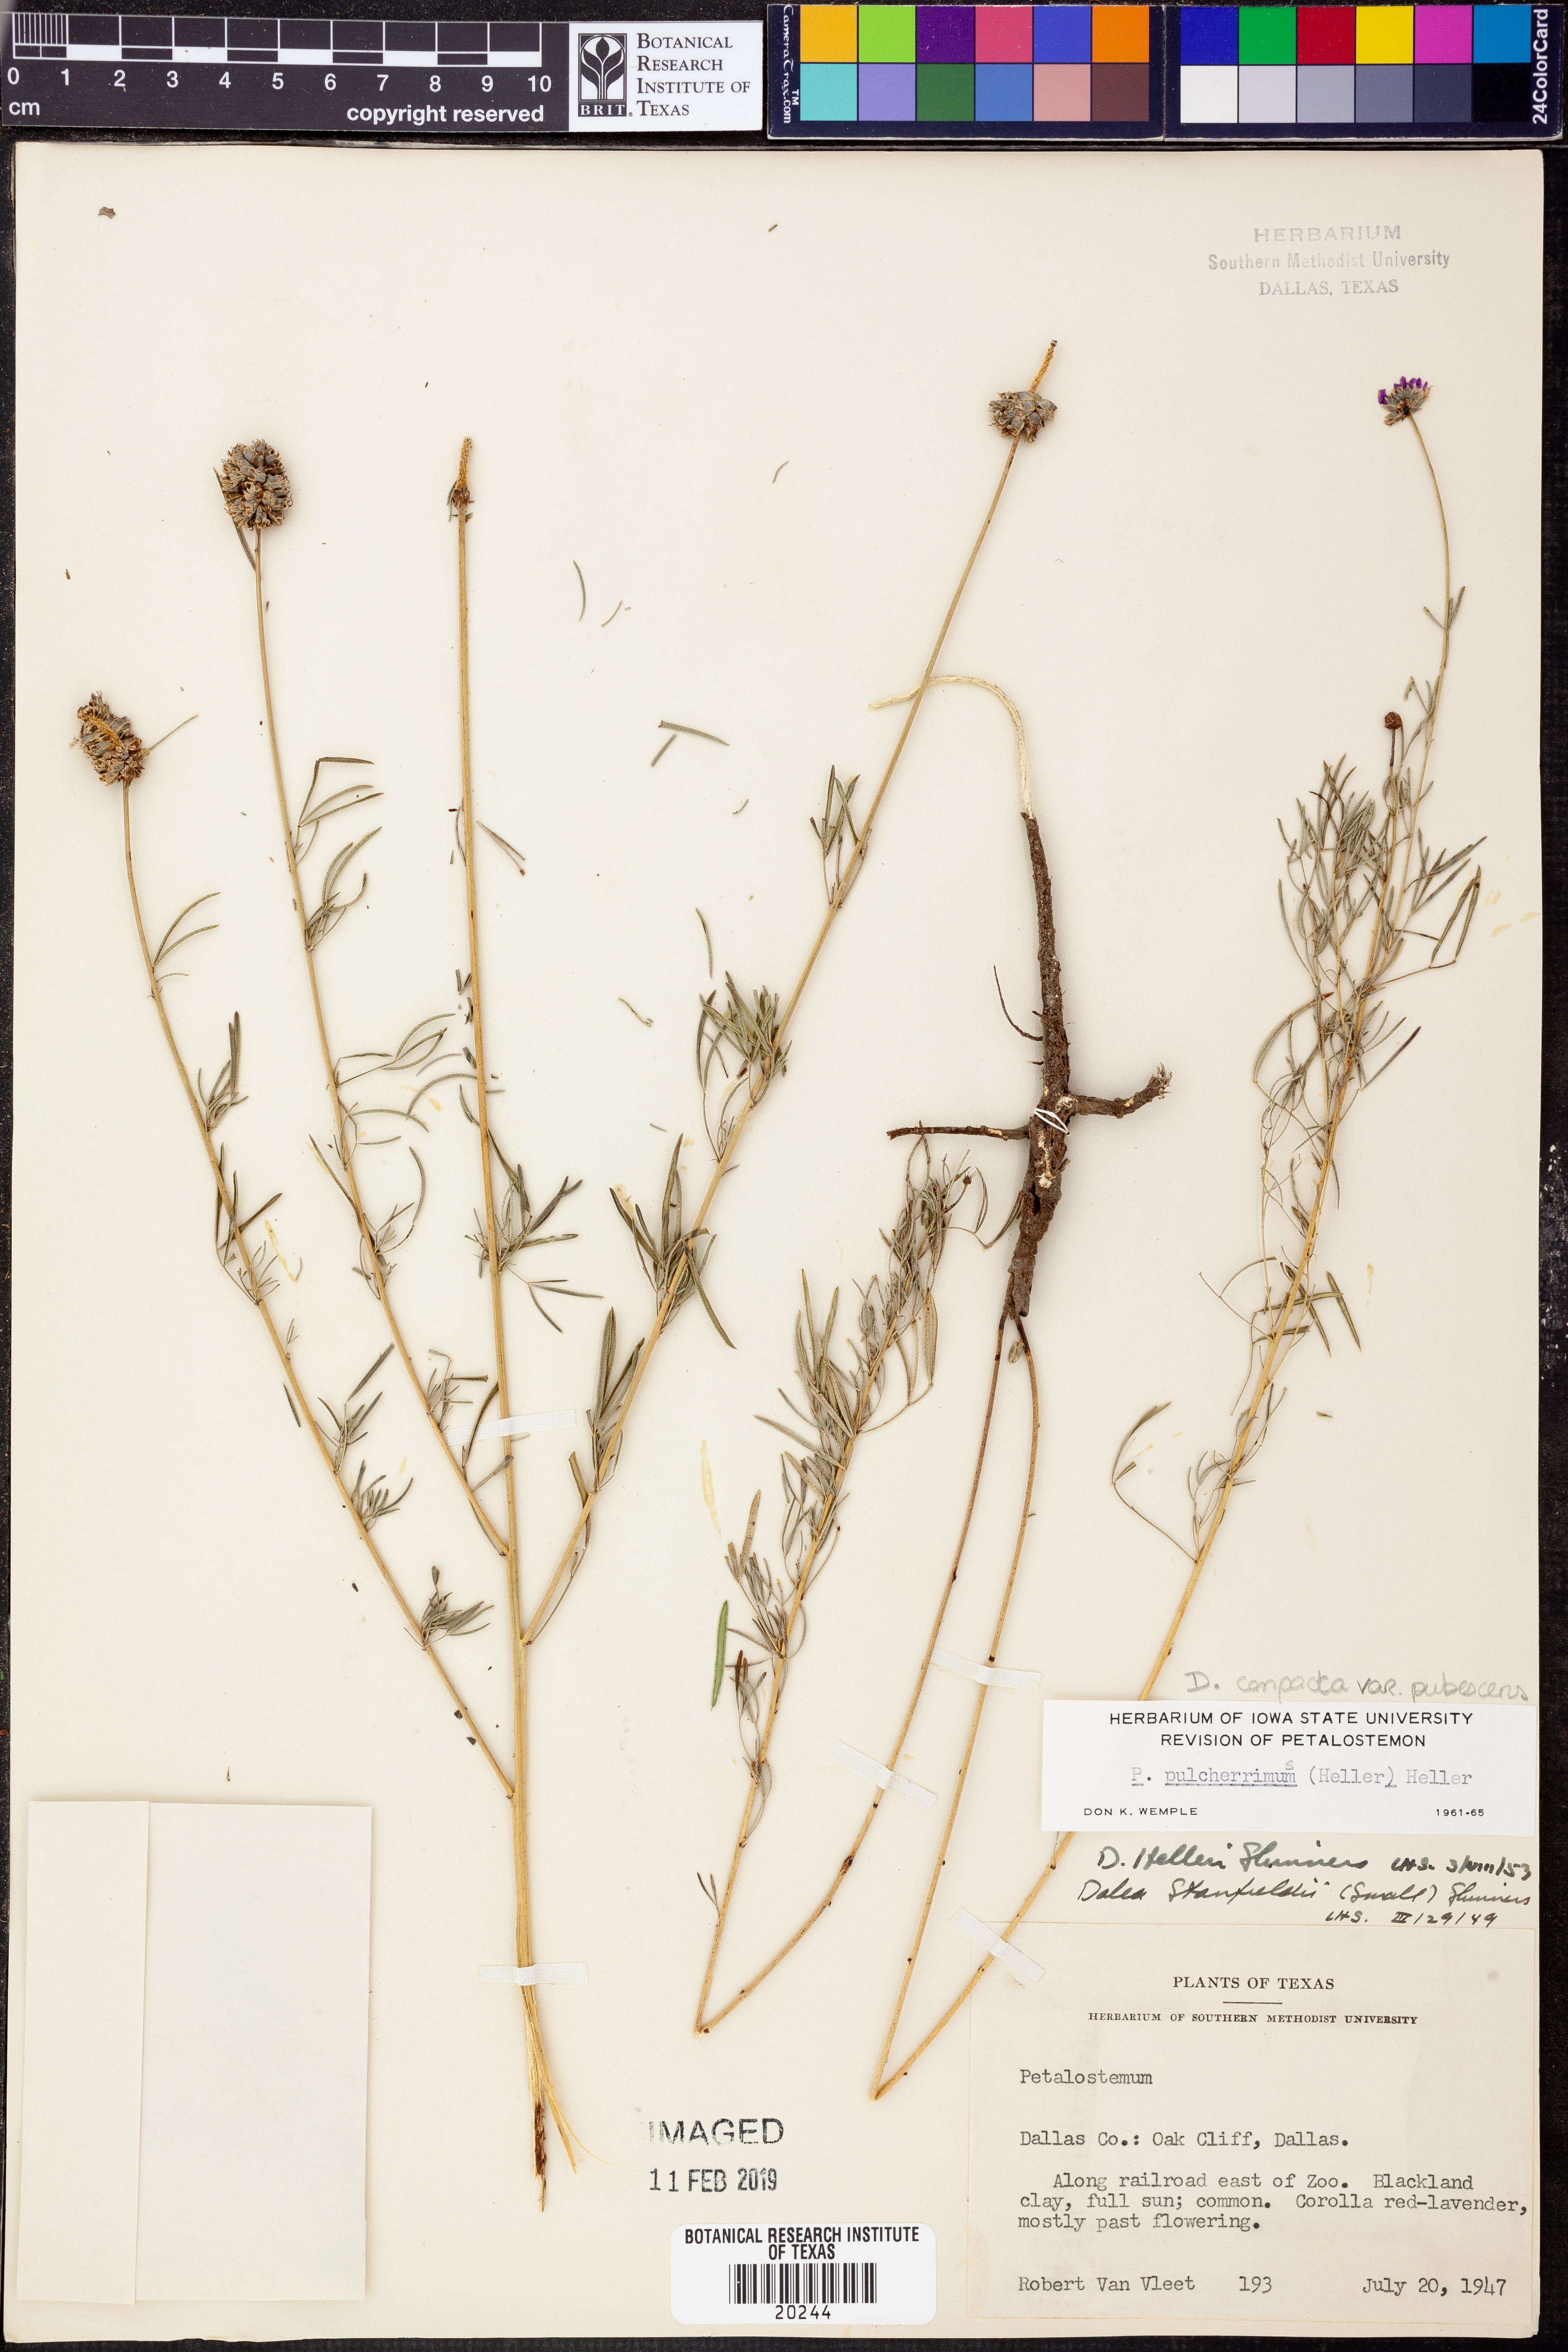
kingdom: Plantae
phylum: Tracheophyta
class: Magnoliopsida
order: Fabales
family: Fabaceae
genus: Dalea
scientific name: Dalea compacta
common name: Compact prairie-clover
